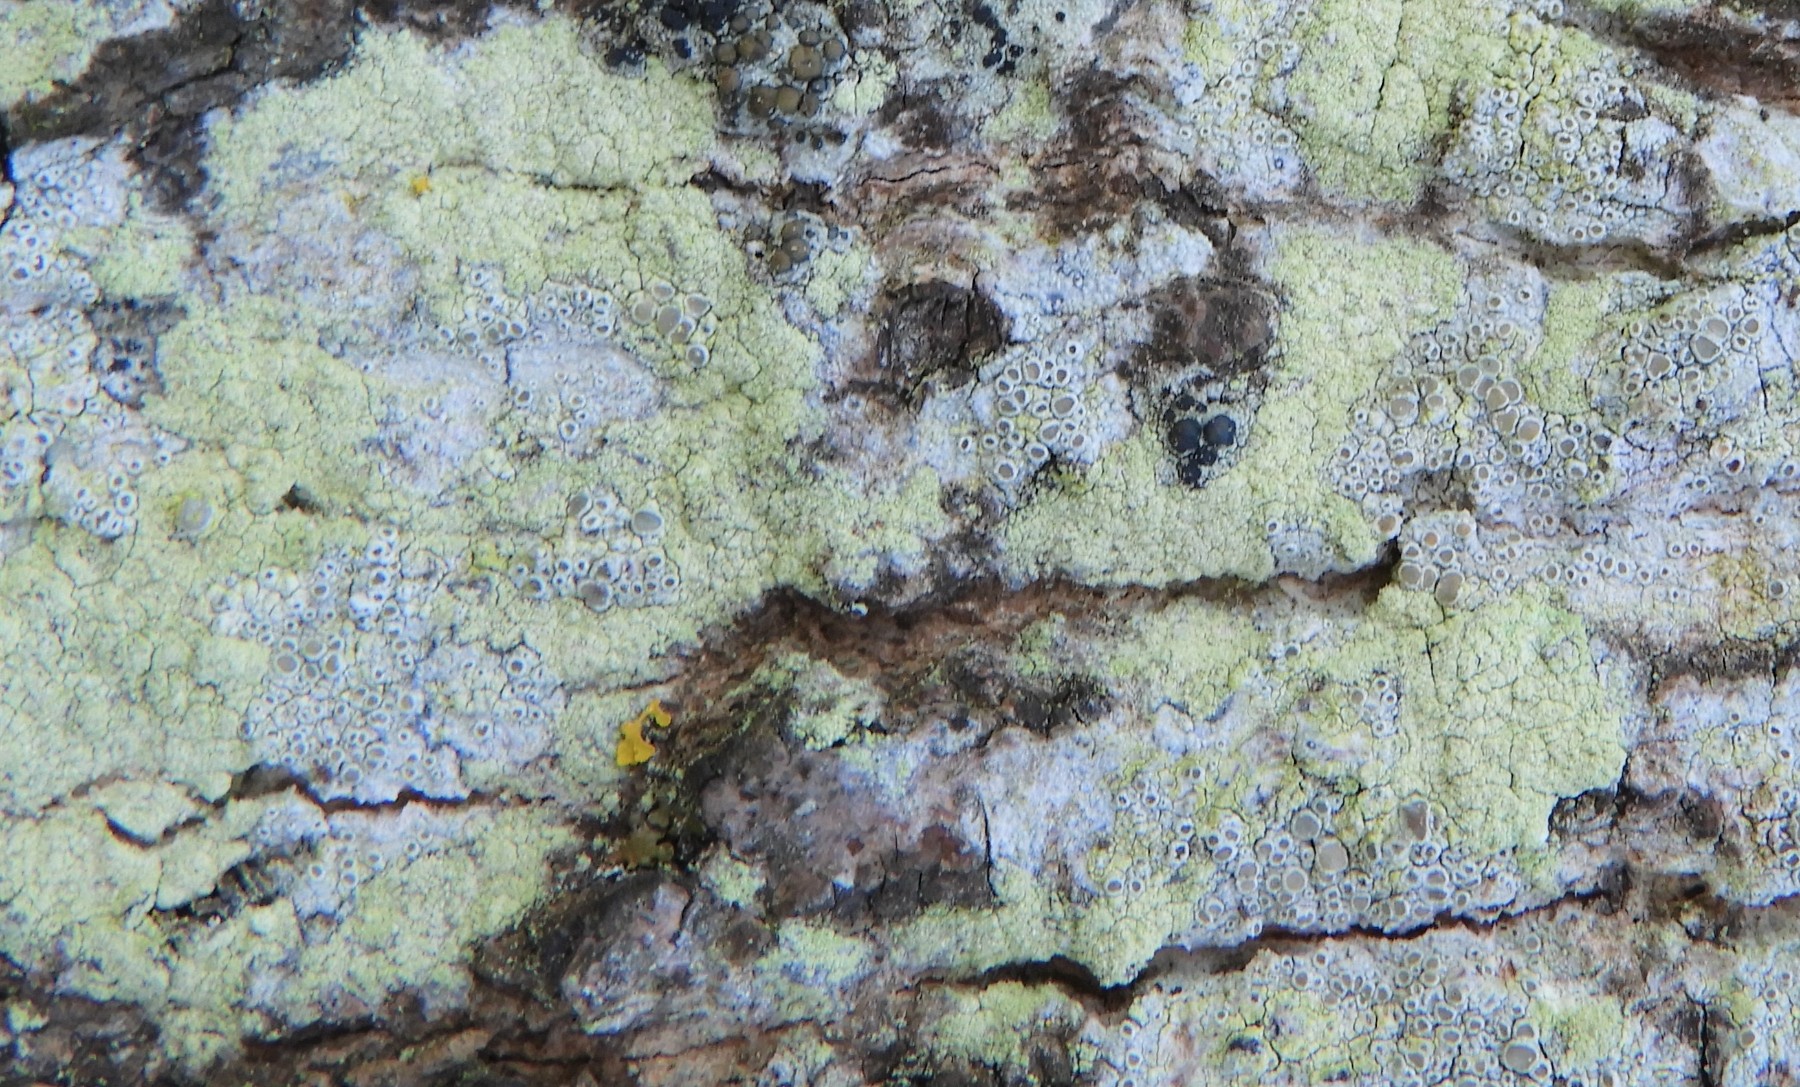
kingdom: Fungi
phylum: Ascomycota
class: Lecanoromycetes
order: Lecanorales
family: Lecanoraceae
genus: Lecanora
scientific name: Lecanora expallens
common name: bleggul kantskivelav
